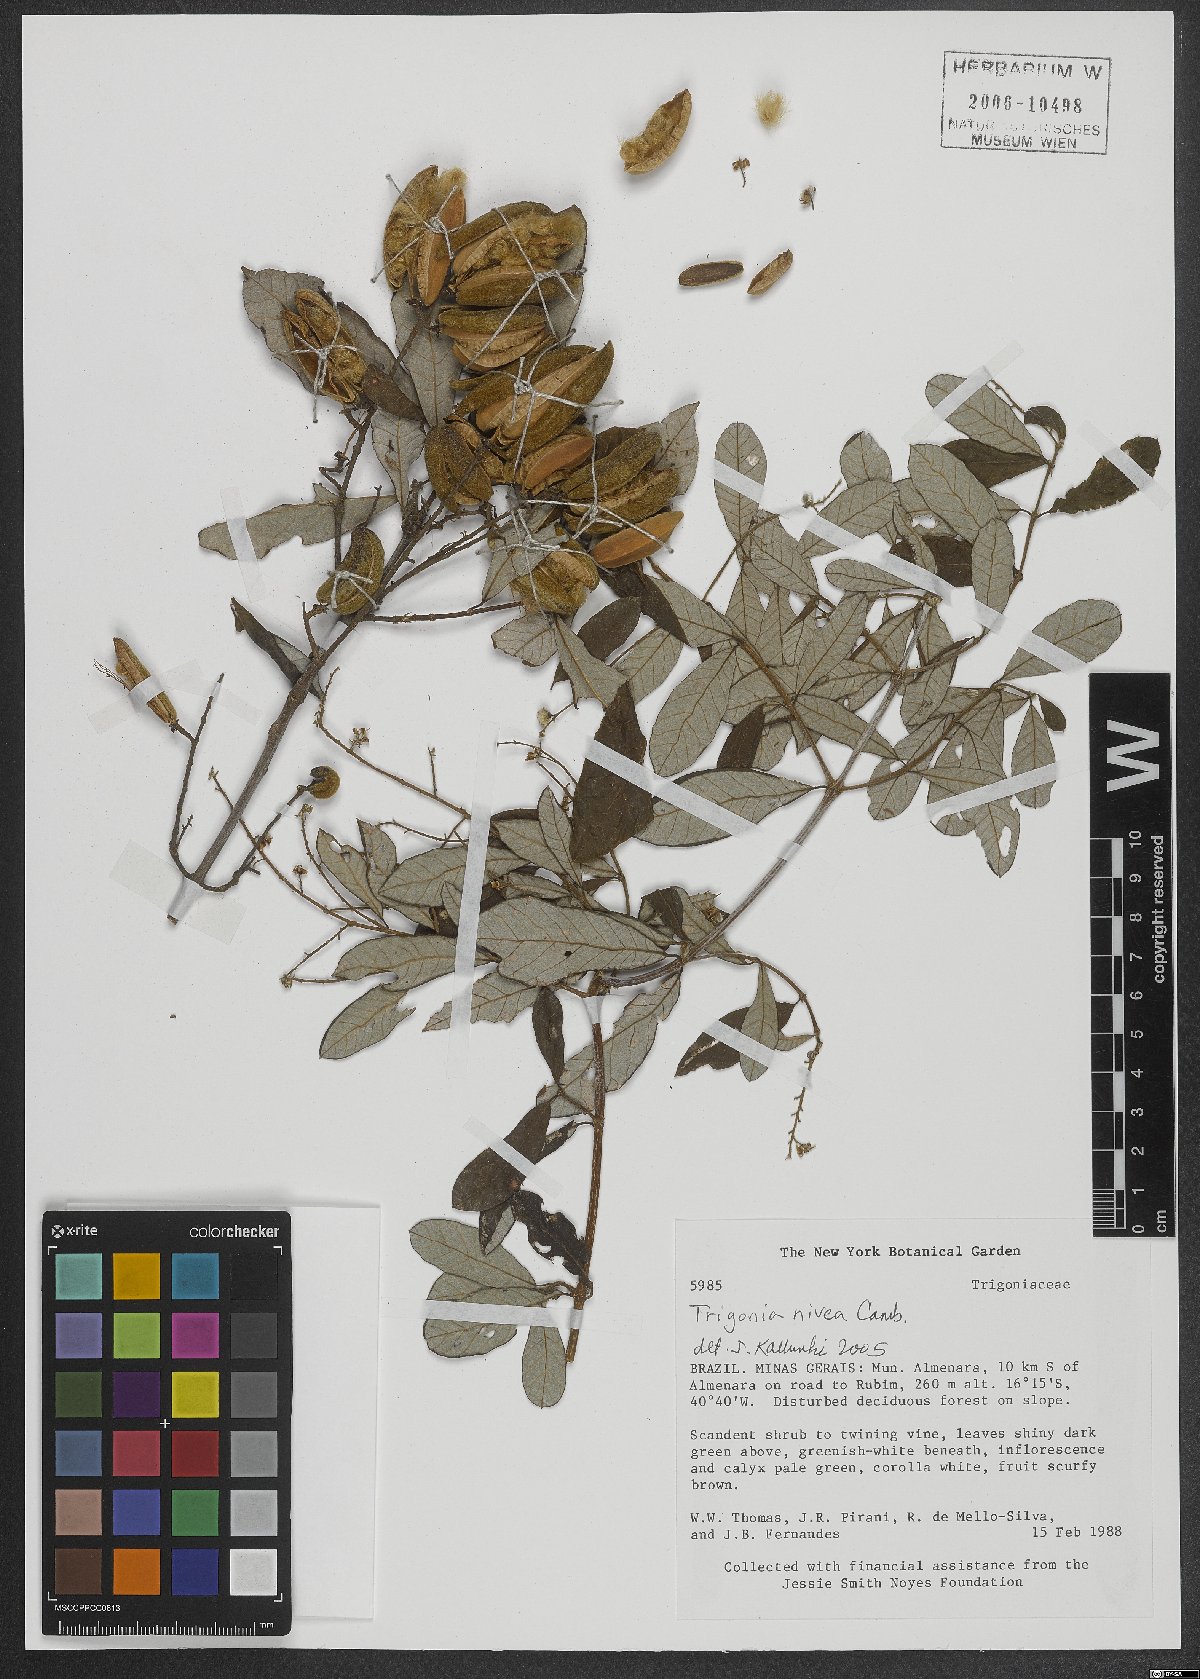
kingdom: Plantae
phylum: Tracheophyta
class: Magnoliopsida
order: Malpighiales
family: Trigoniaceae
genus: Trigonia
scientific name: Trigonia nivea
